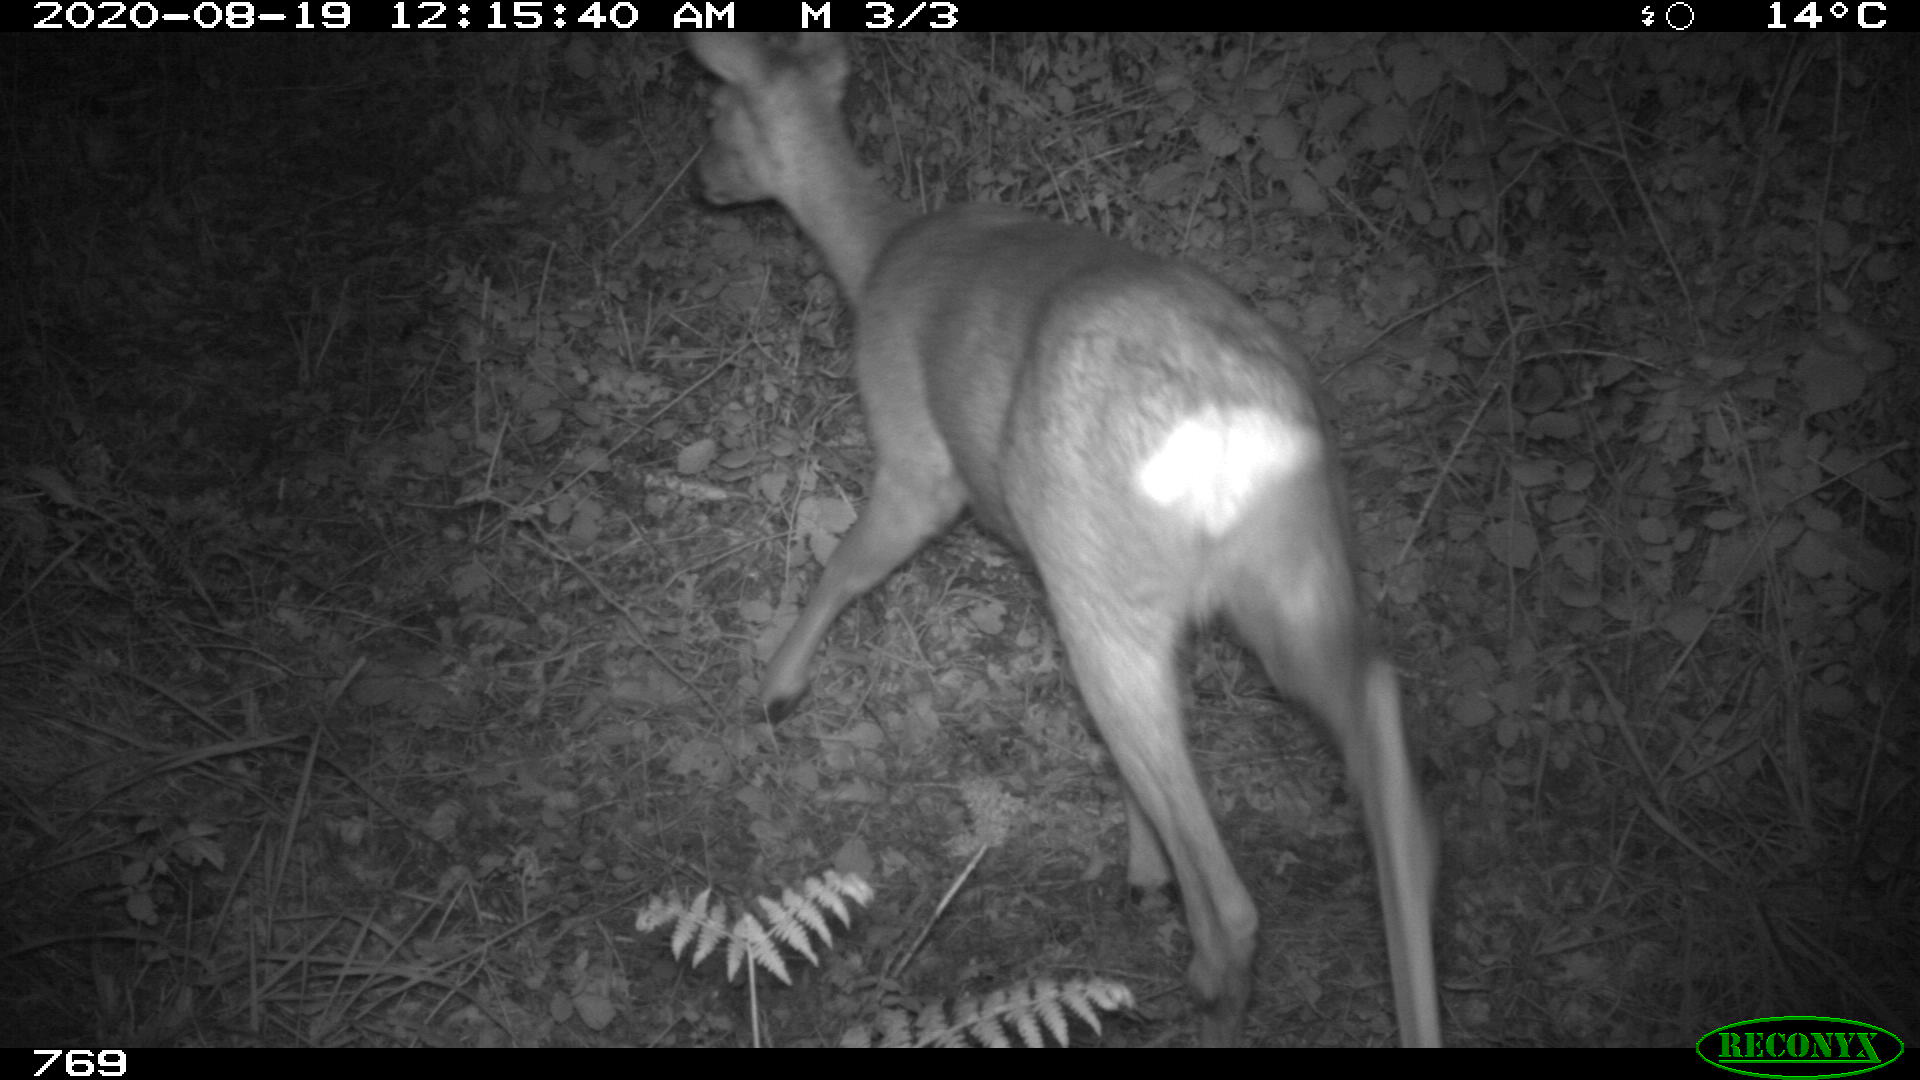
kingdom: Animalia
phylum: Chordata
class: Mammalia
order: Artiodactyla
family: Cervidae
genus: Capreolus
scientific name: Capreolus capreolus
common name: Western roe deer
